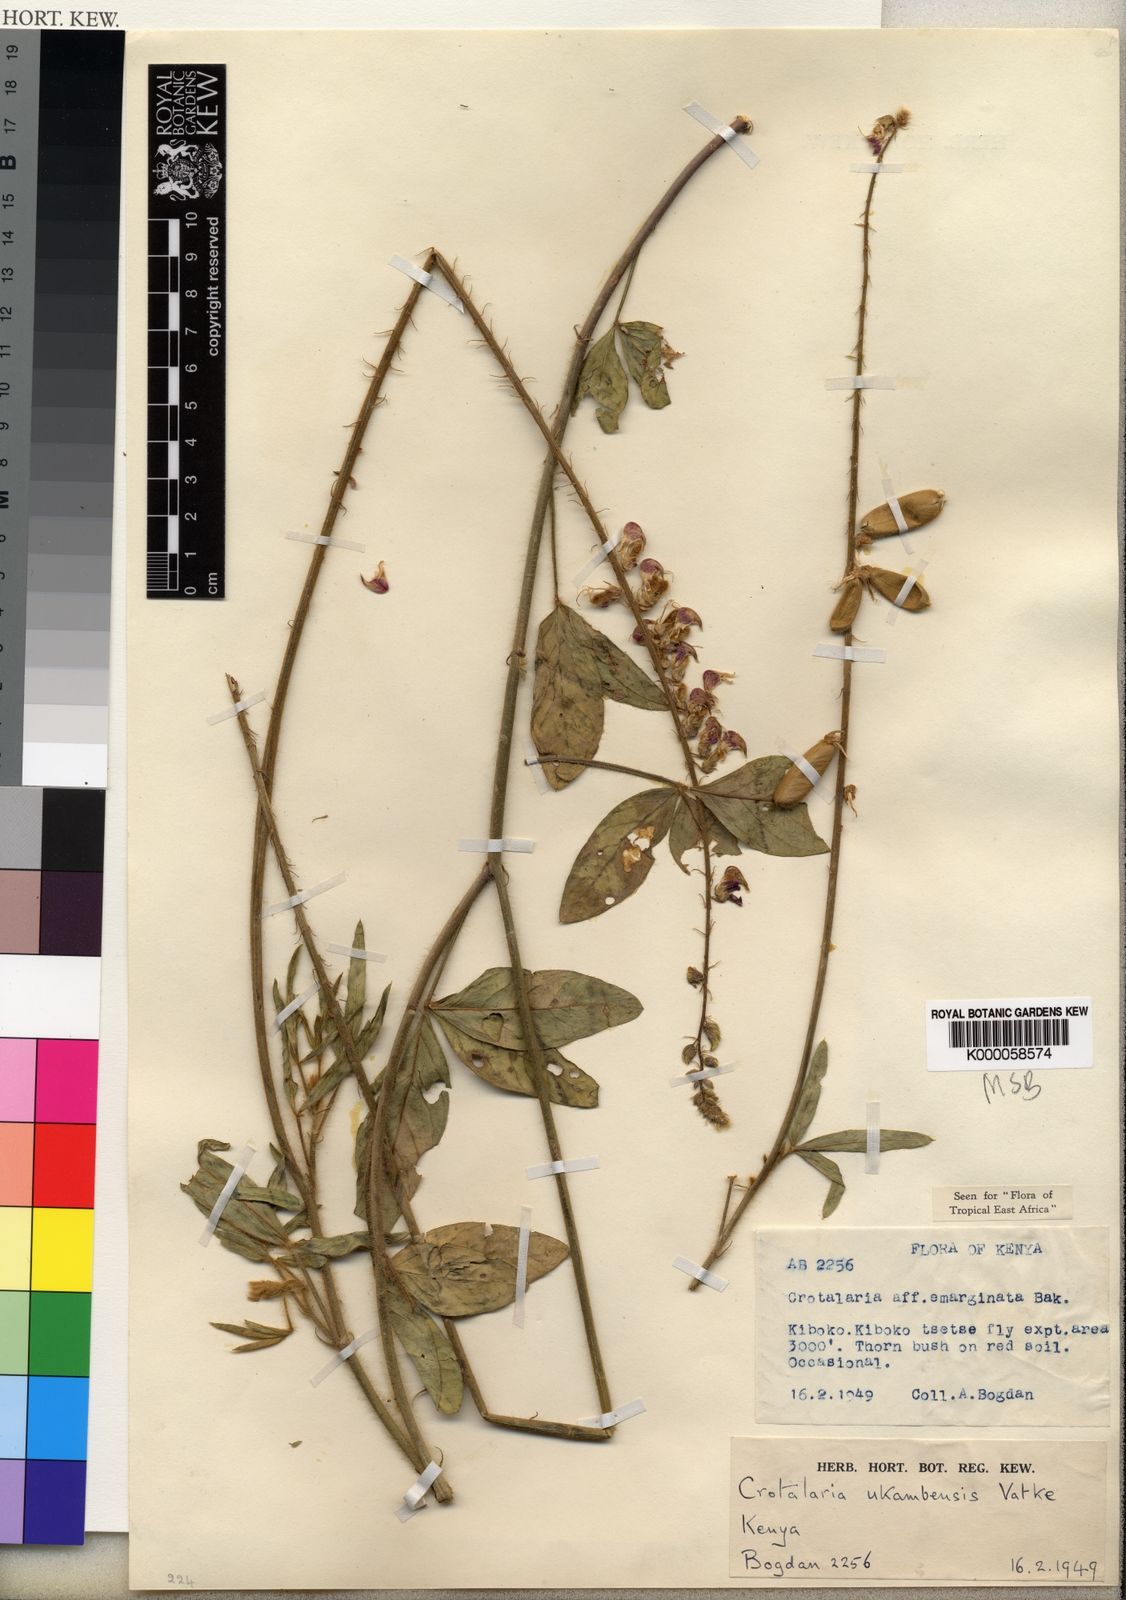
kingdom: Plantae
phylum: Tracheophyta
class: Magnoliopsida
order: Fabales
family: Fabaceae
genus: Crotalaria
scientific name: Crotalaria ukambensis
